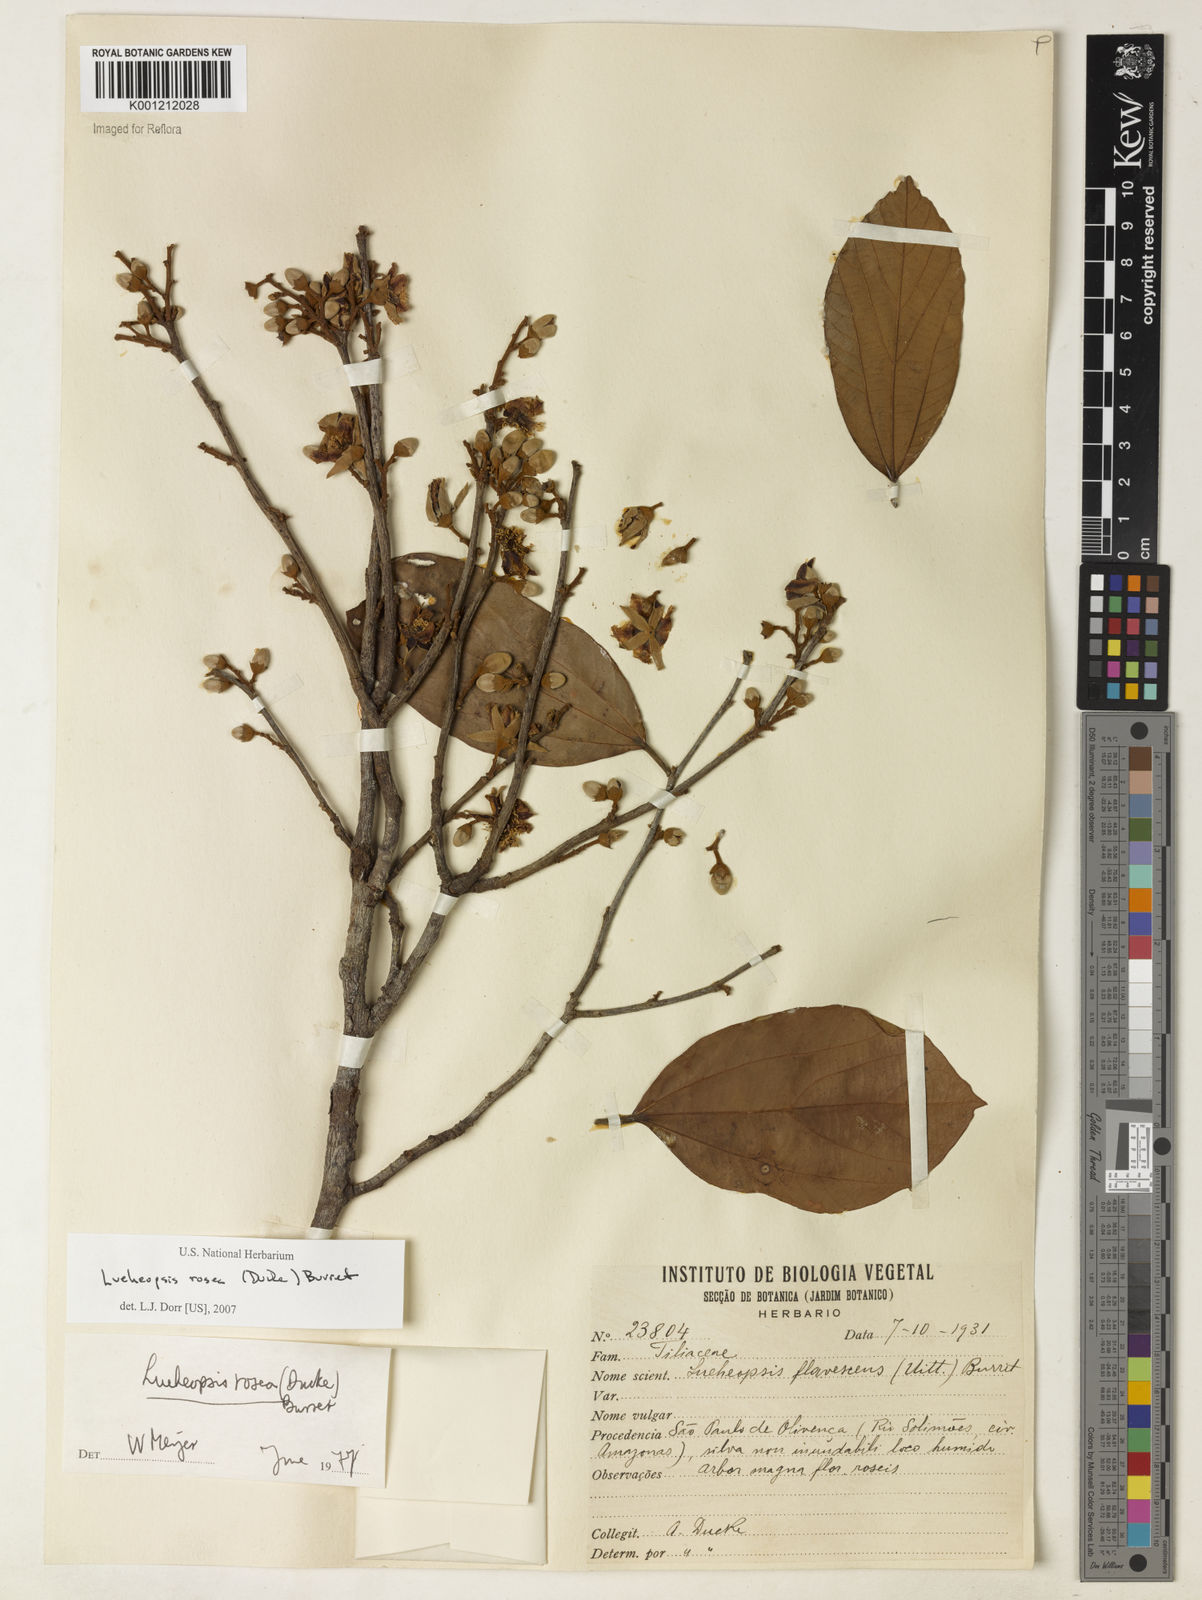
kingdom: Plantae
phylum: Tracheophyta
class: Magnoliopsida
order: Malvales
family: Malvaceae
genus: Lueheopsis
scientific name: Lueheopsis rosea
